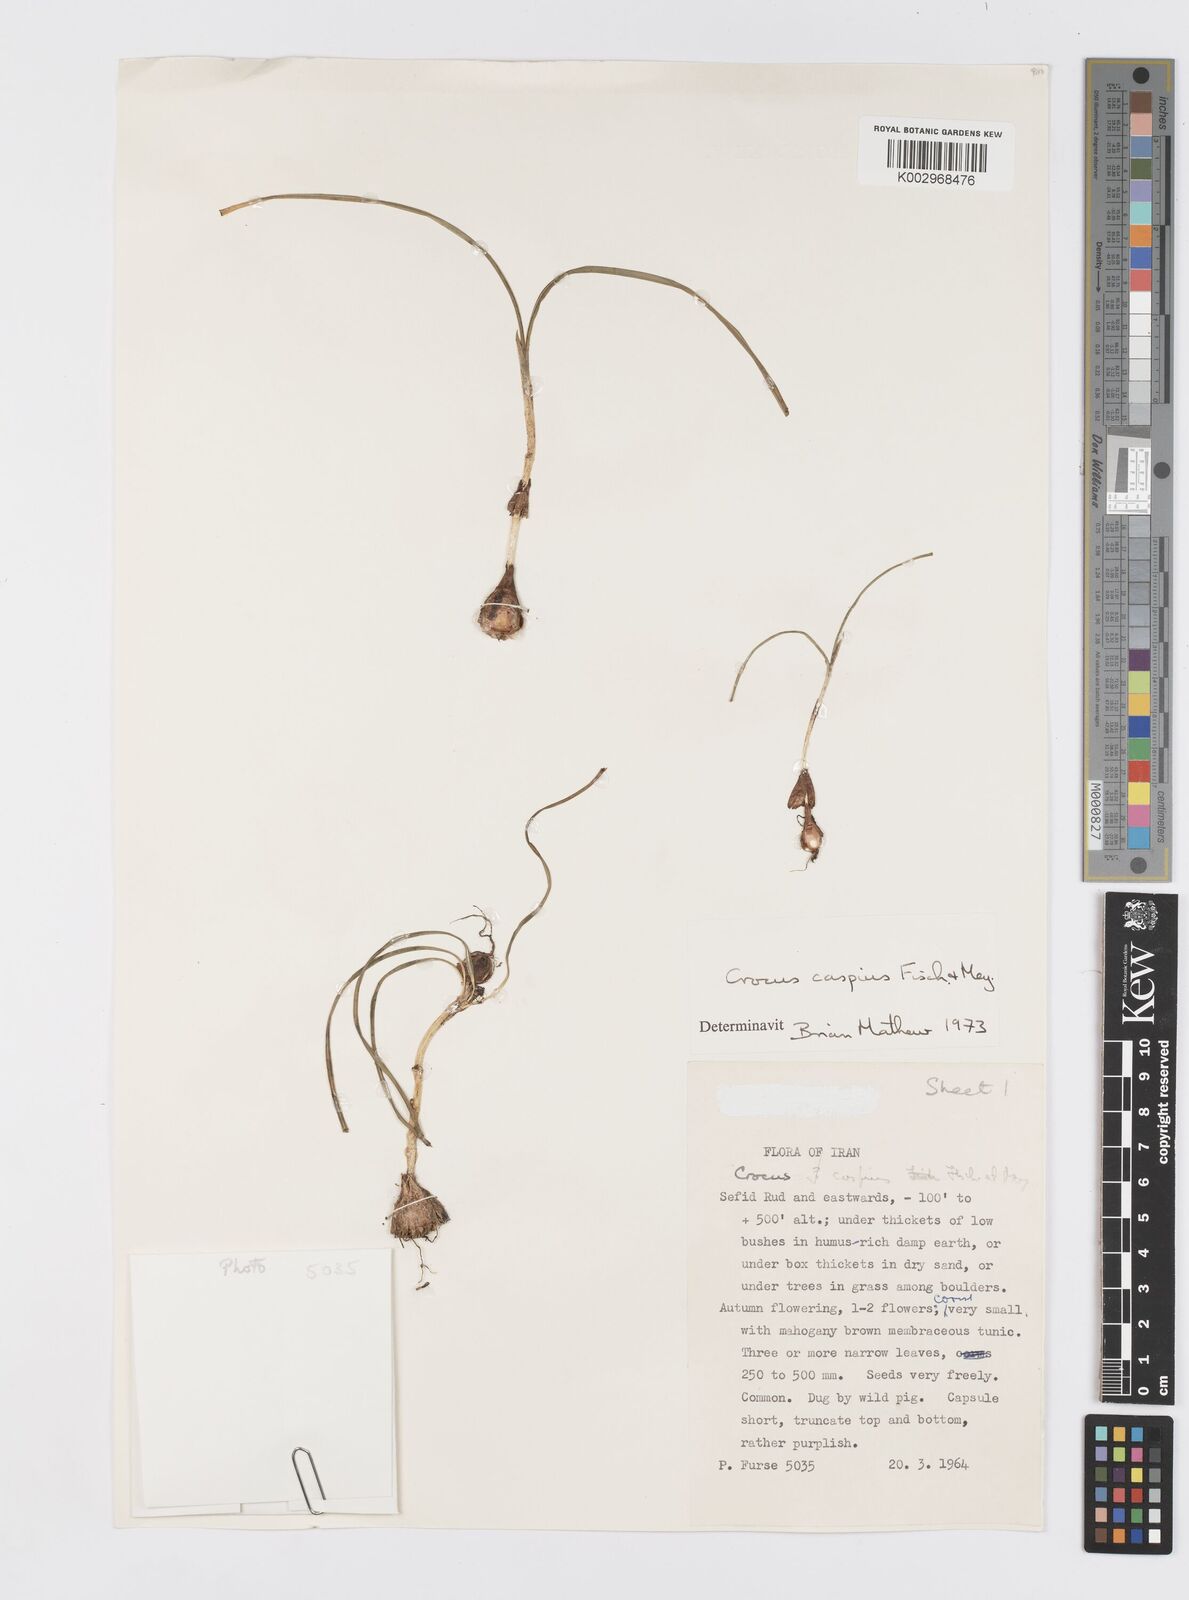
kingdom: Plantae
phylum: Tracheophyta
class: Liliopsida
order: Asparagales
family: Iridaceae
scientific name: Iridaceae
